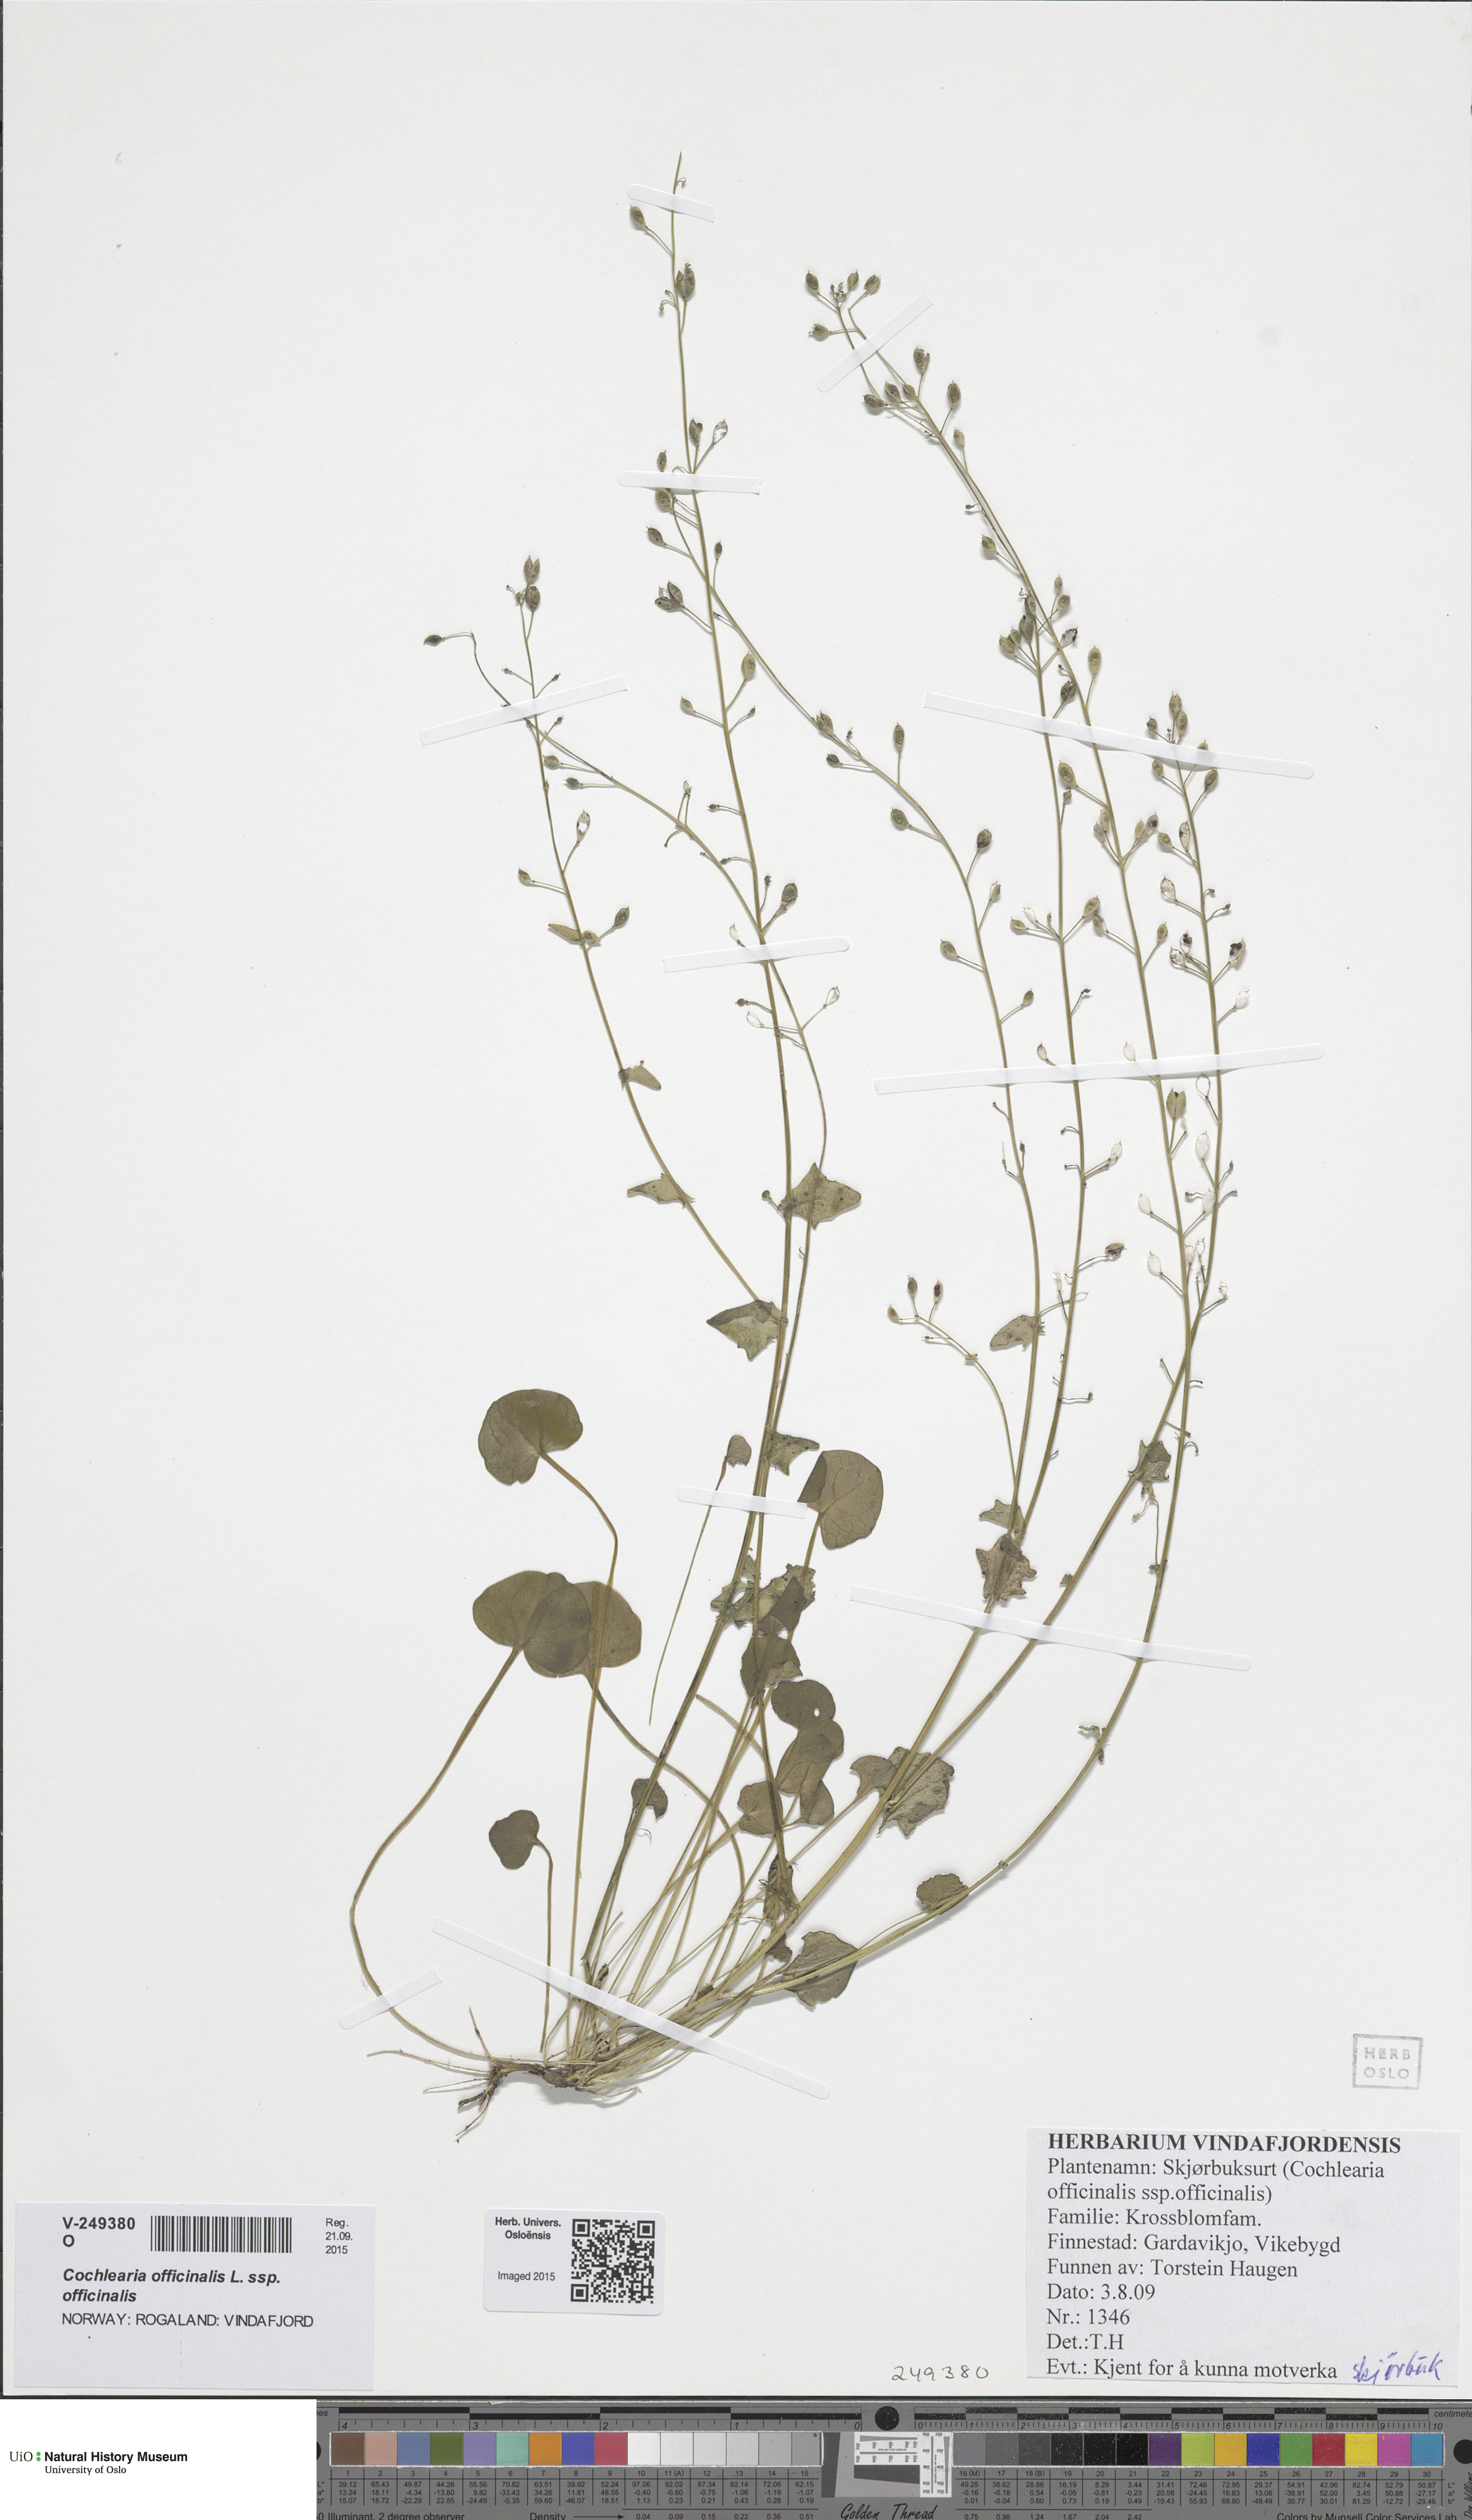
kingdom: Plantae
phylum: Tracheophyta
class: Magnoliopsida
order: Brassicales
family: Brassicaceae
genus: Cochlearia
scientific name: Cochlearia officinalis
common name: Scurvy-grass
